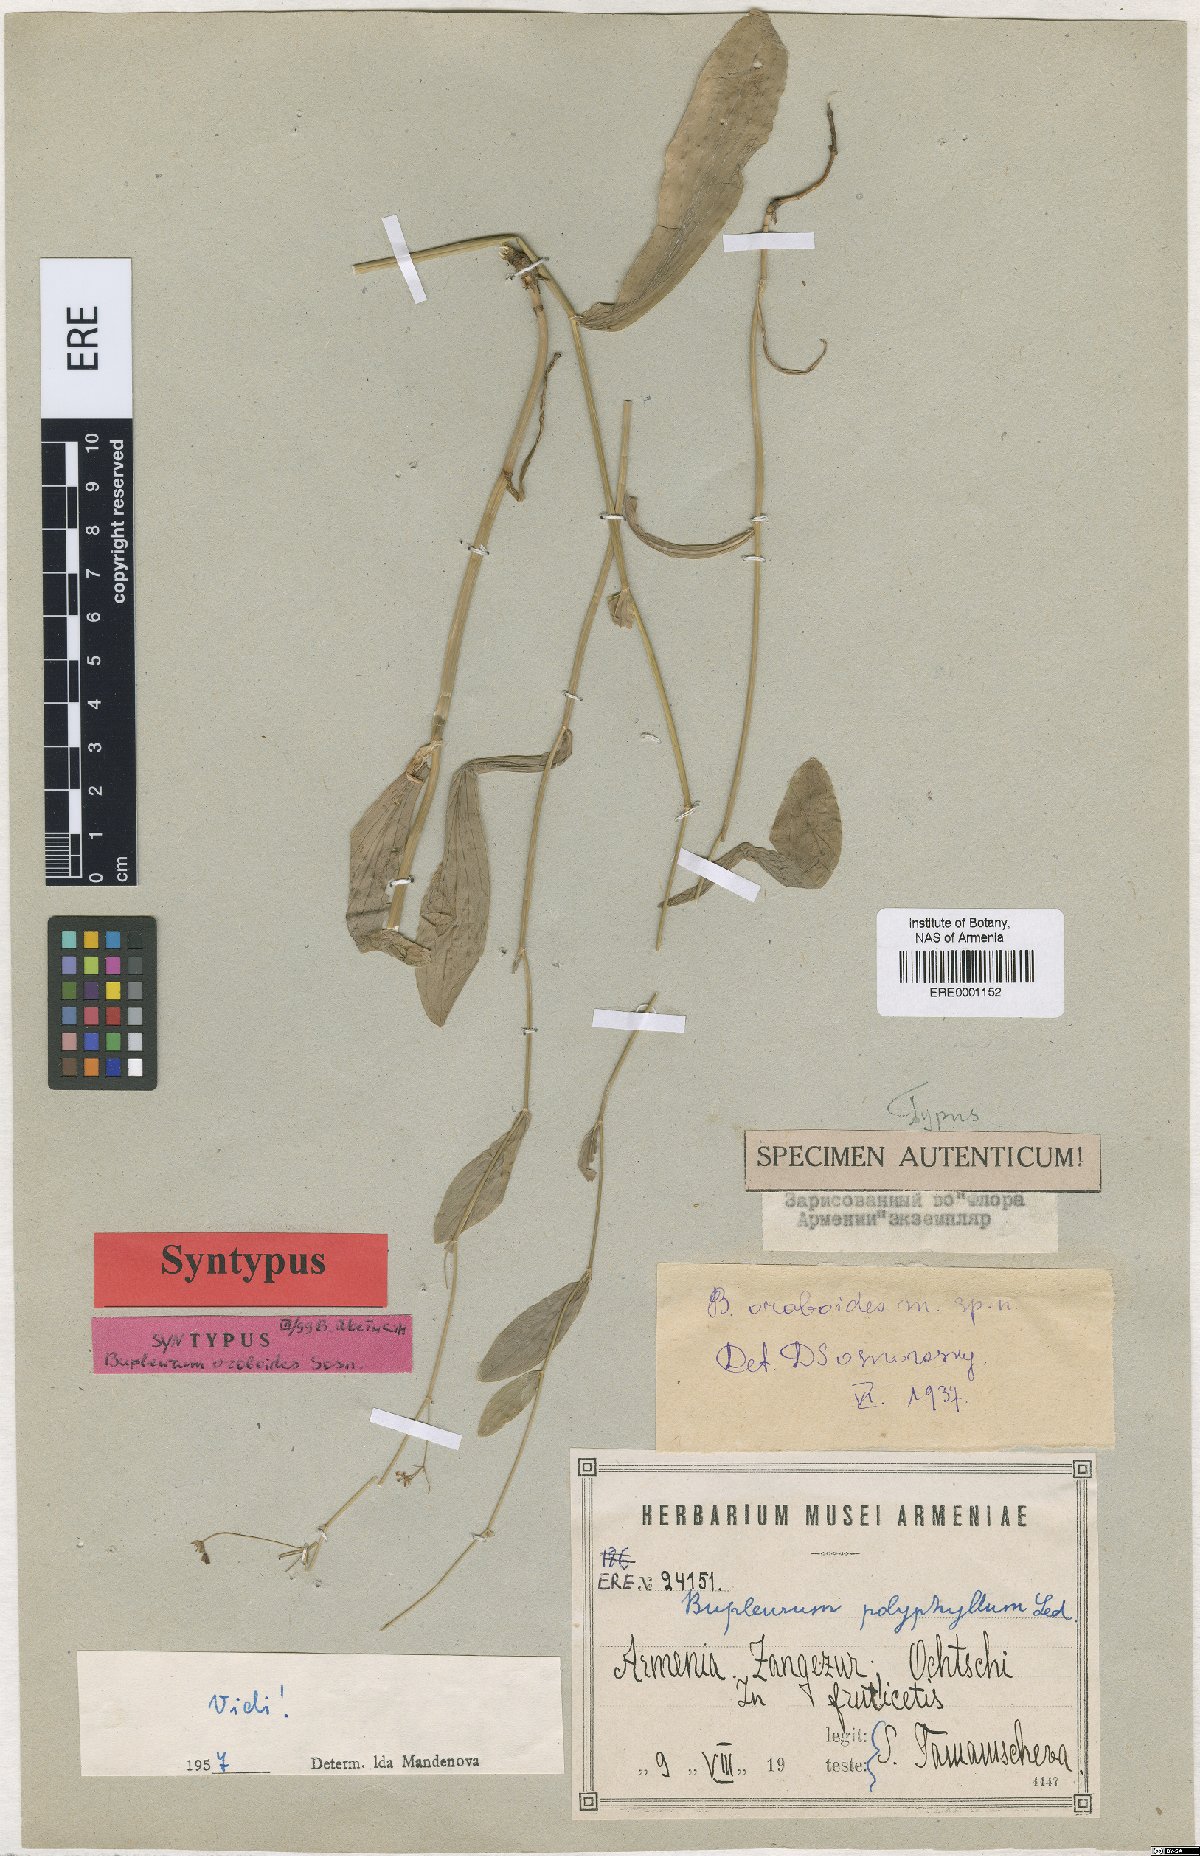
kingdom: Plantae
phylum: Tracheophyta
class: Magnoliopsida
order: Apiales
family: Apiaceae
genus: Bupleurum
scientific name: Bupleurum polyphyllum
